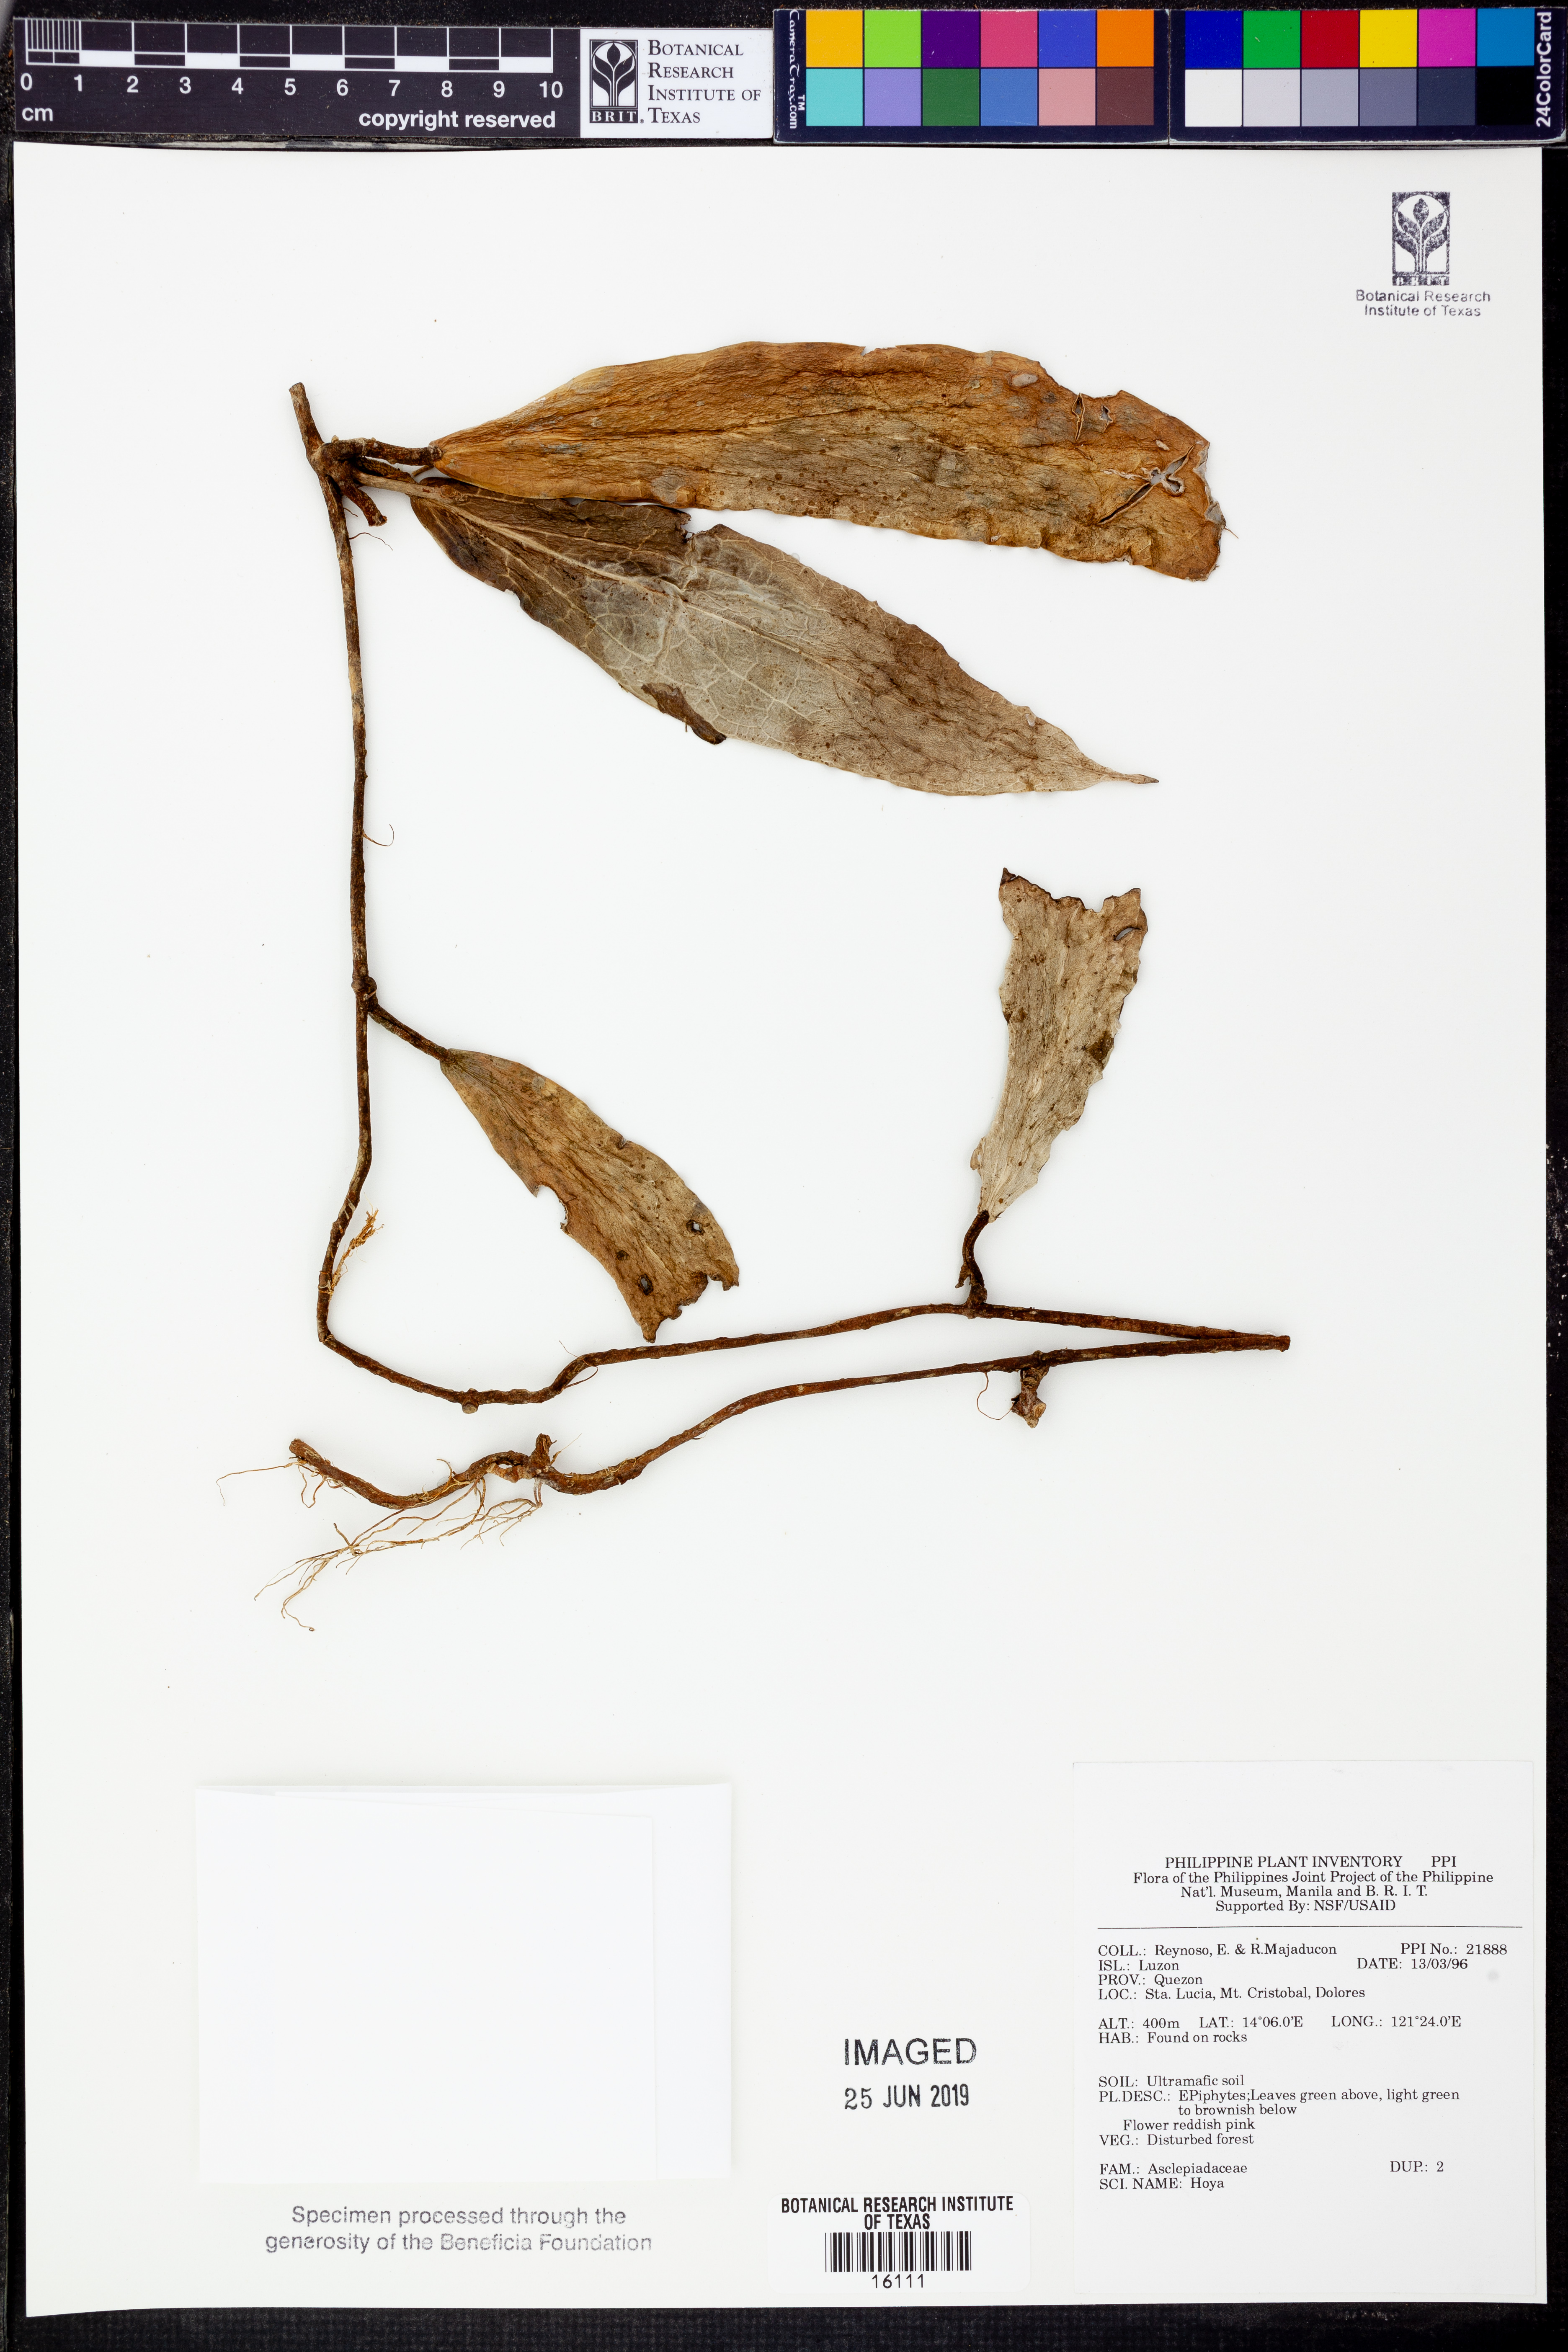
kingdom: Plantae
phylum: Tracheophyta
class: Magnoliopsida
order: Gentianales
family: Apocynaceae
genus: Hoya
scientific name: Hoya
